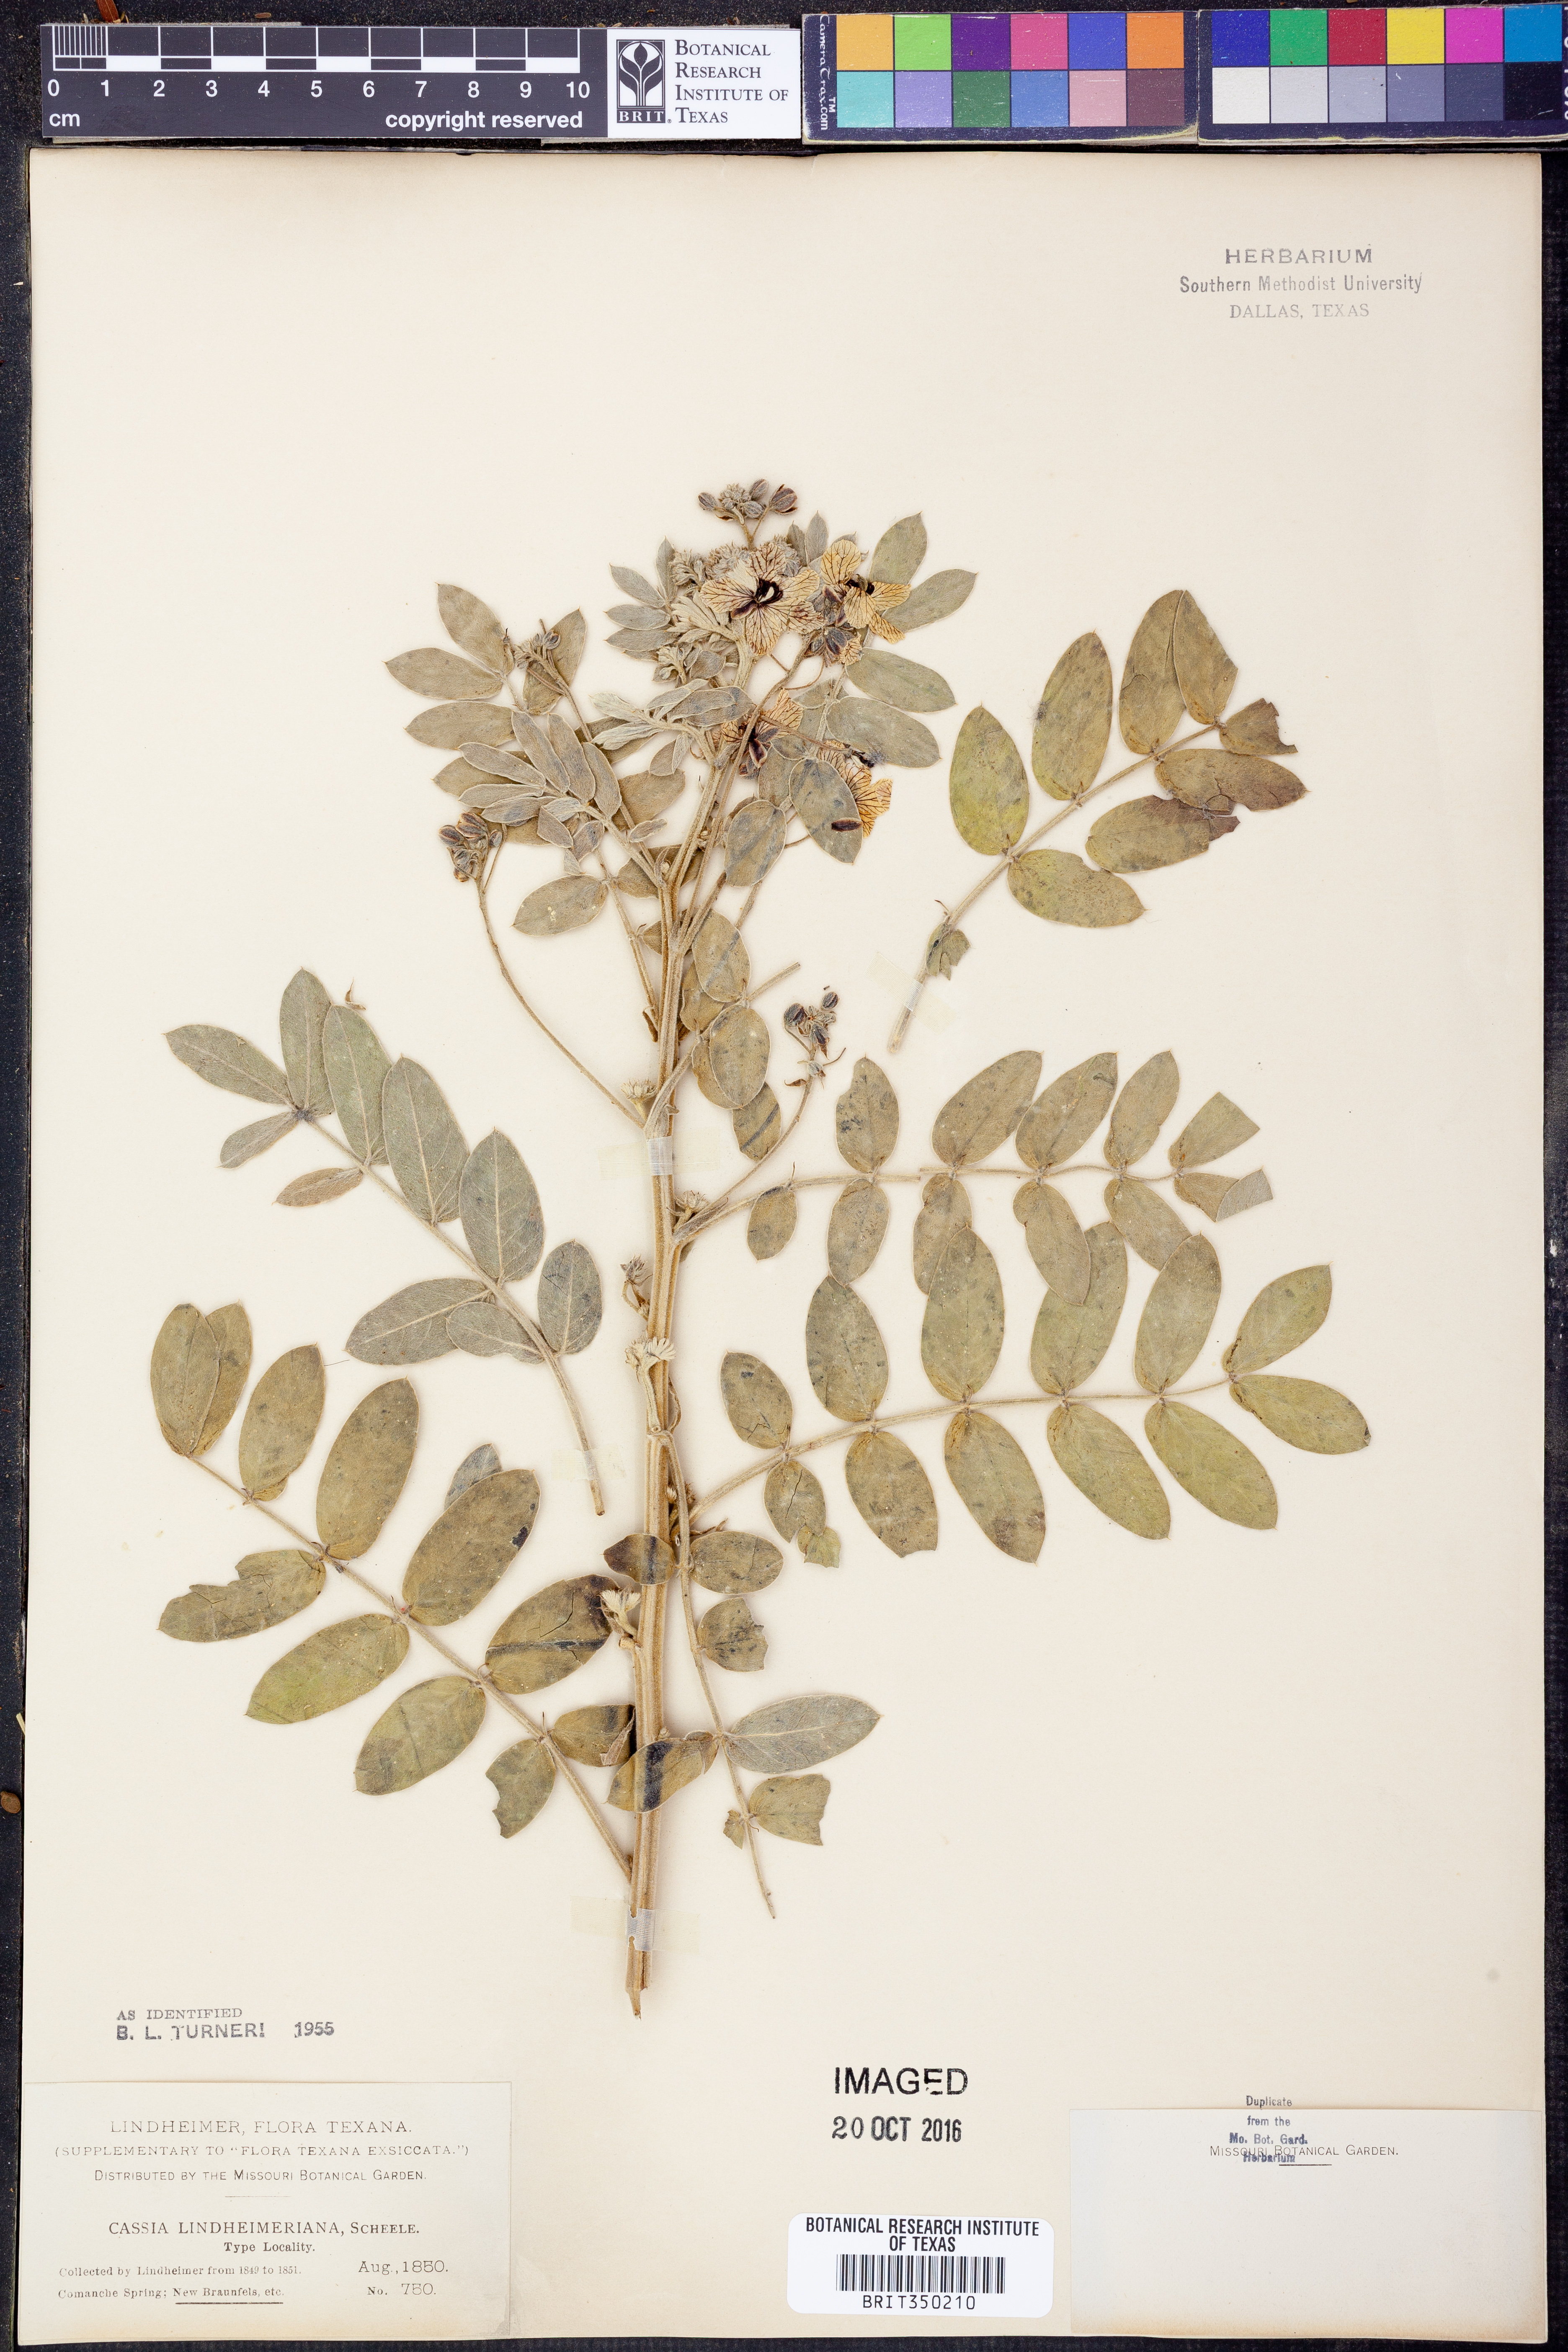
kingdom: Plantae
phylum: Tracheophyta
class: Magnoliopsida
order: Fabales
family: Fabaceae
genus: Senna
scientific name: Senna lindheimeriana
